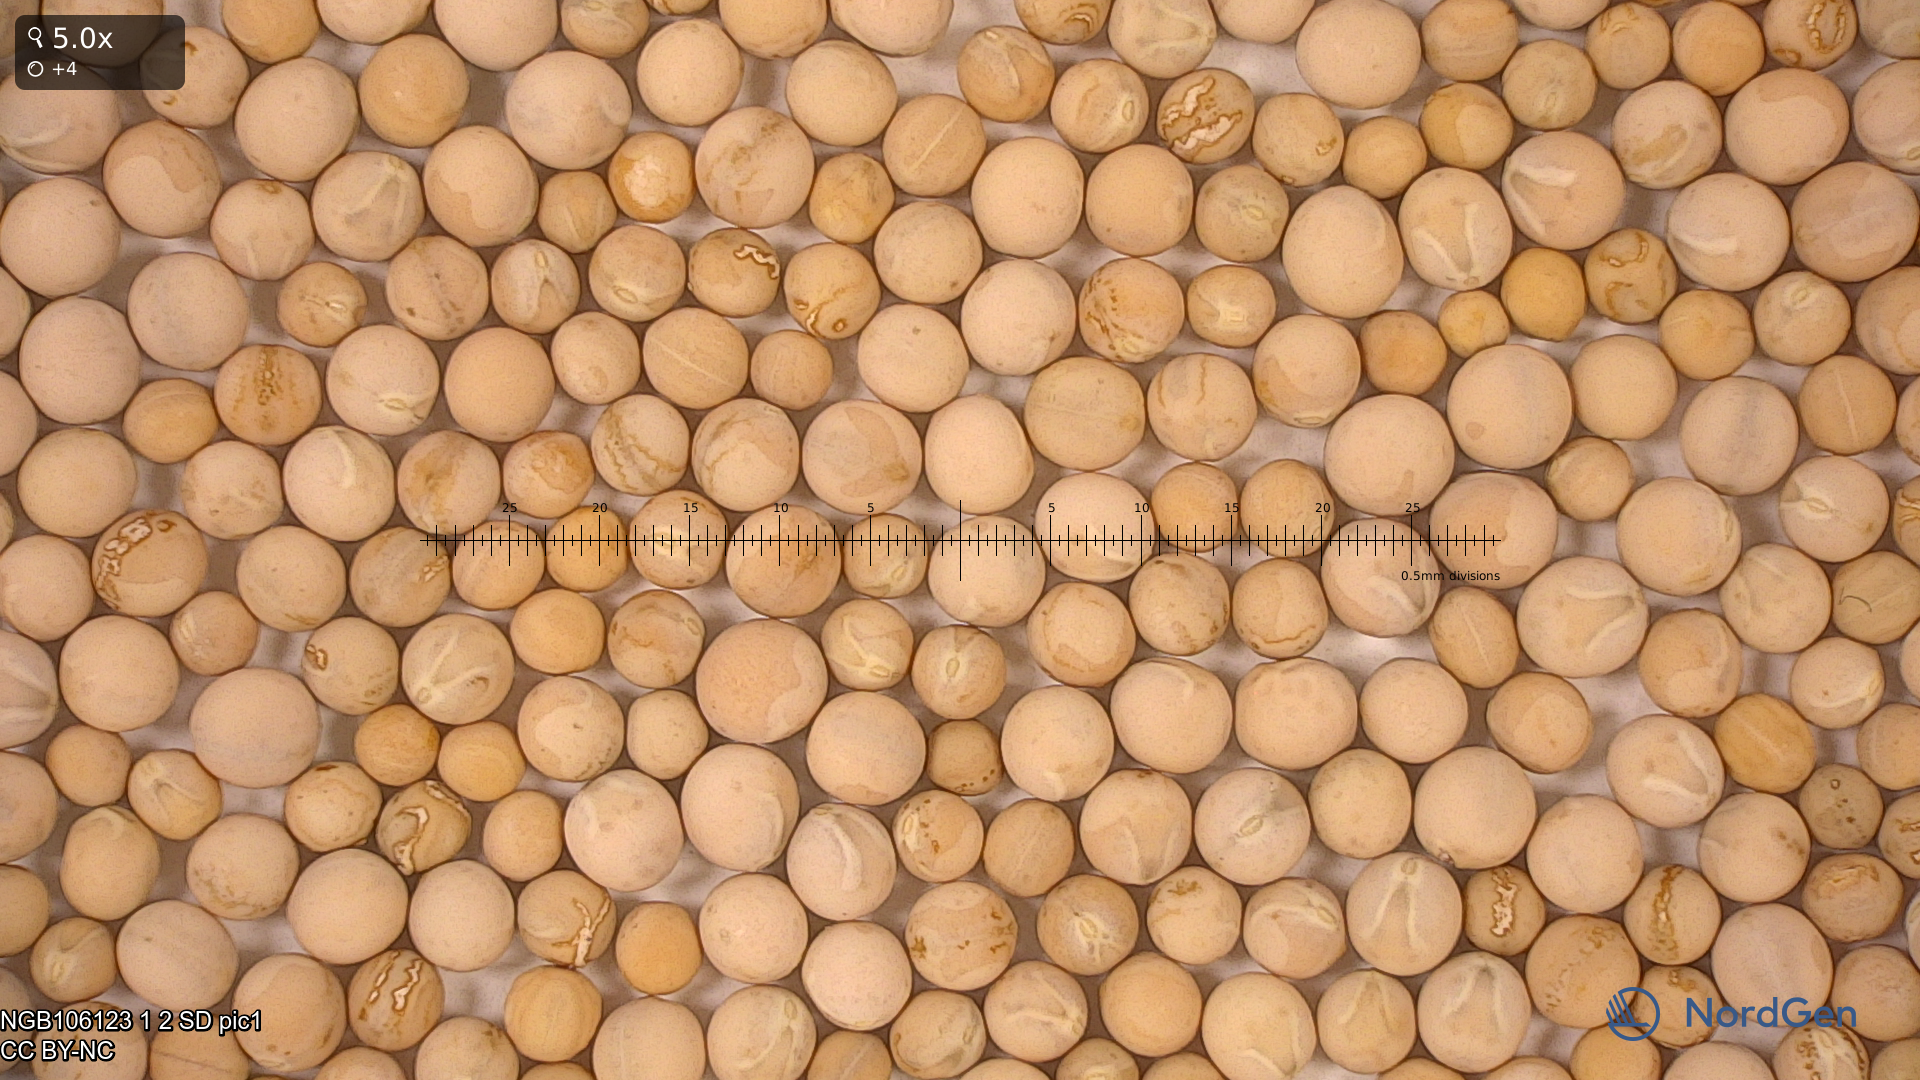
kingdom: Plantae
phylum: Tracheophyta
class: Magnoliopsida
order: Fabales
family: Fabaceae
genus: Lathyrus
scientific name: Lathyrus oleraceus
